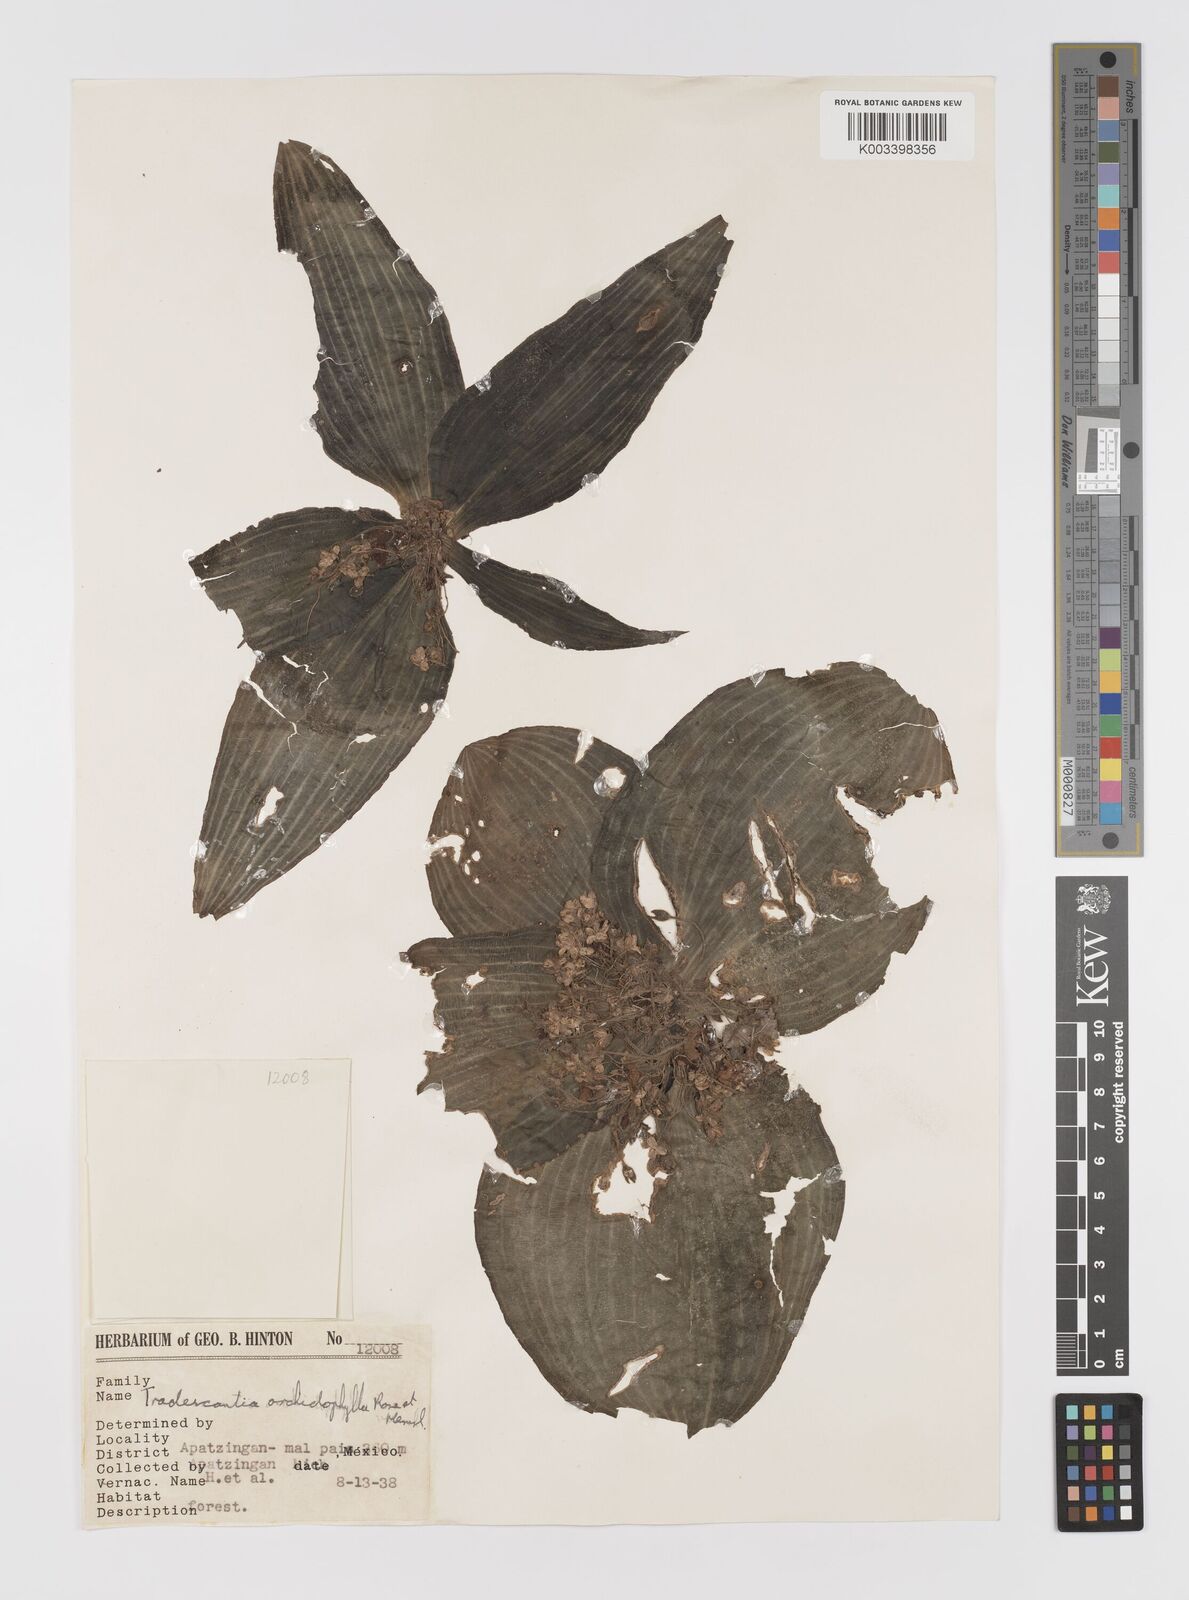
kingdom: Plantae
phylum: Tracheophyta
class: Liliopsida
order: Commelinales
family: Commelinaceae
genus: Tradescantia
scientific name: Tradescantia orchidophylla
